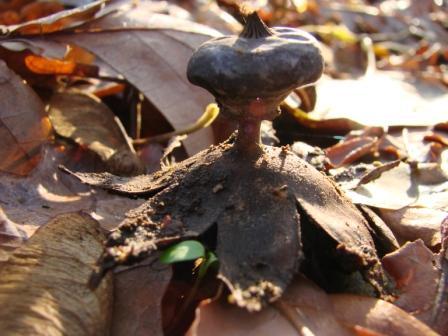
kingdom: Fungi
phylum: Basidiomycota
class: Agaricomycetes
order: Geastrales
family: Geastraceae
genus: Geastrum
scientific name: Geastrum striatum
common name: krave-stjernebold
